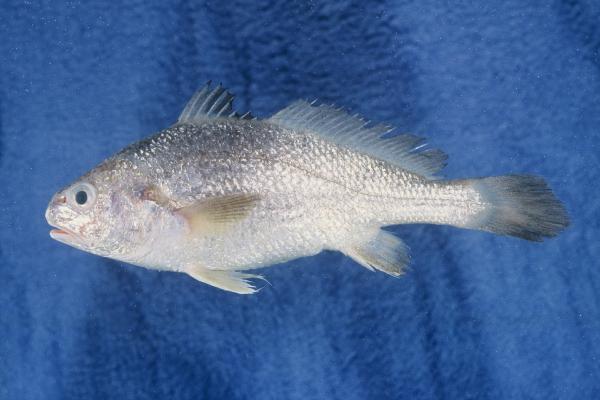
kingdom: Animalia
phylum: Chordata
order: Perciformes
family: Sciaenidae
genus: Johnius
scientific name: Johnius dorsalis
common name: Sharp-tooth jewfish
